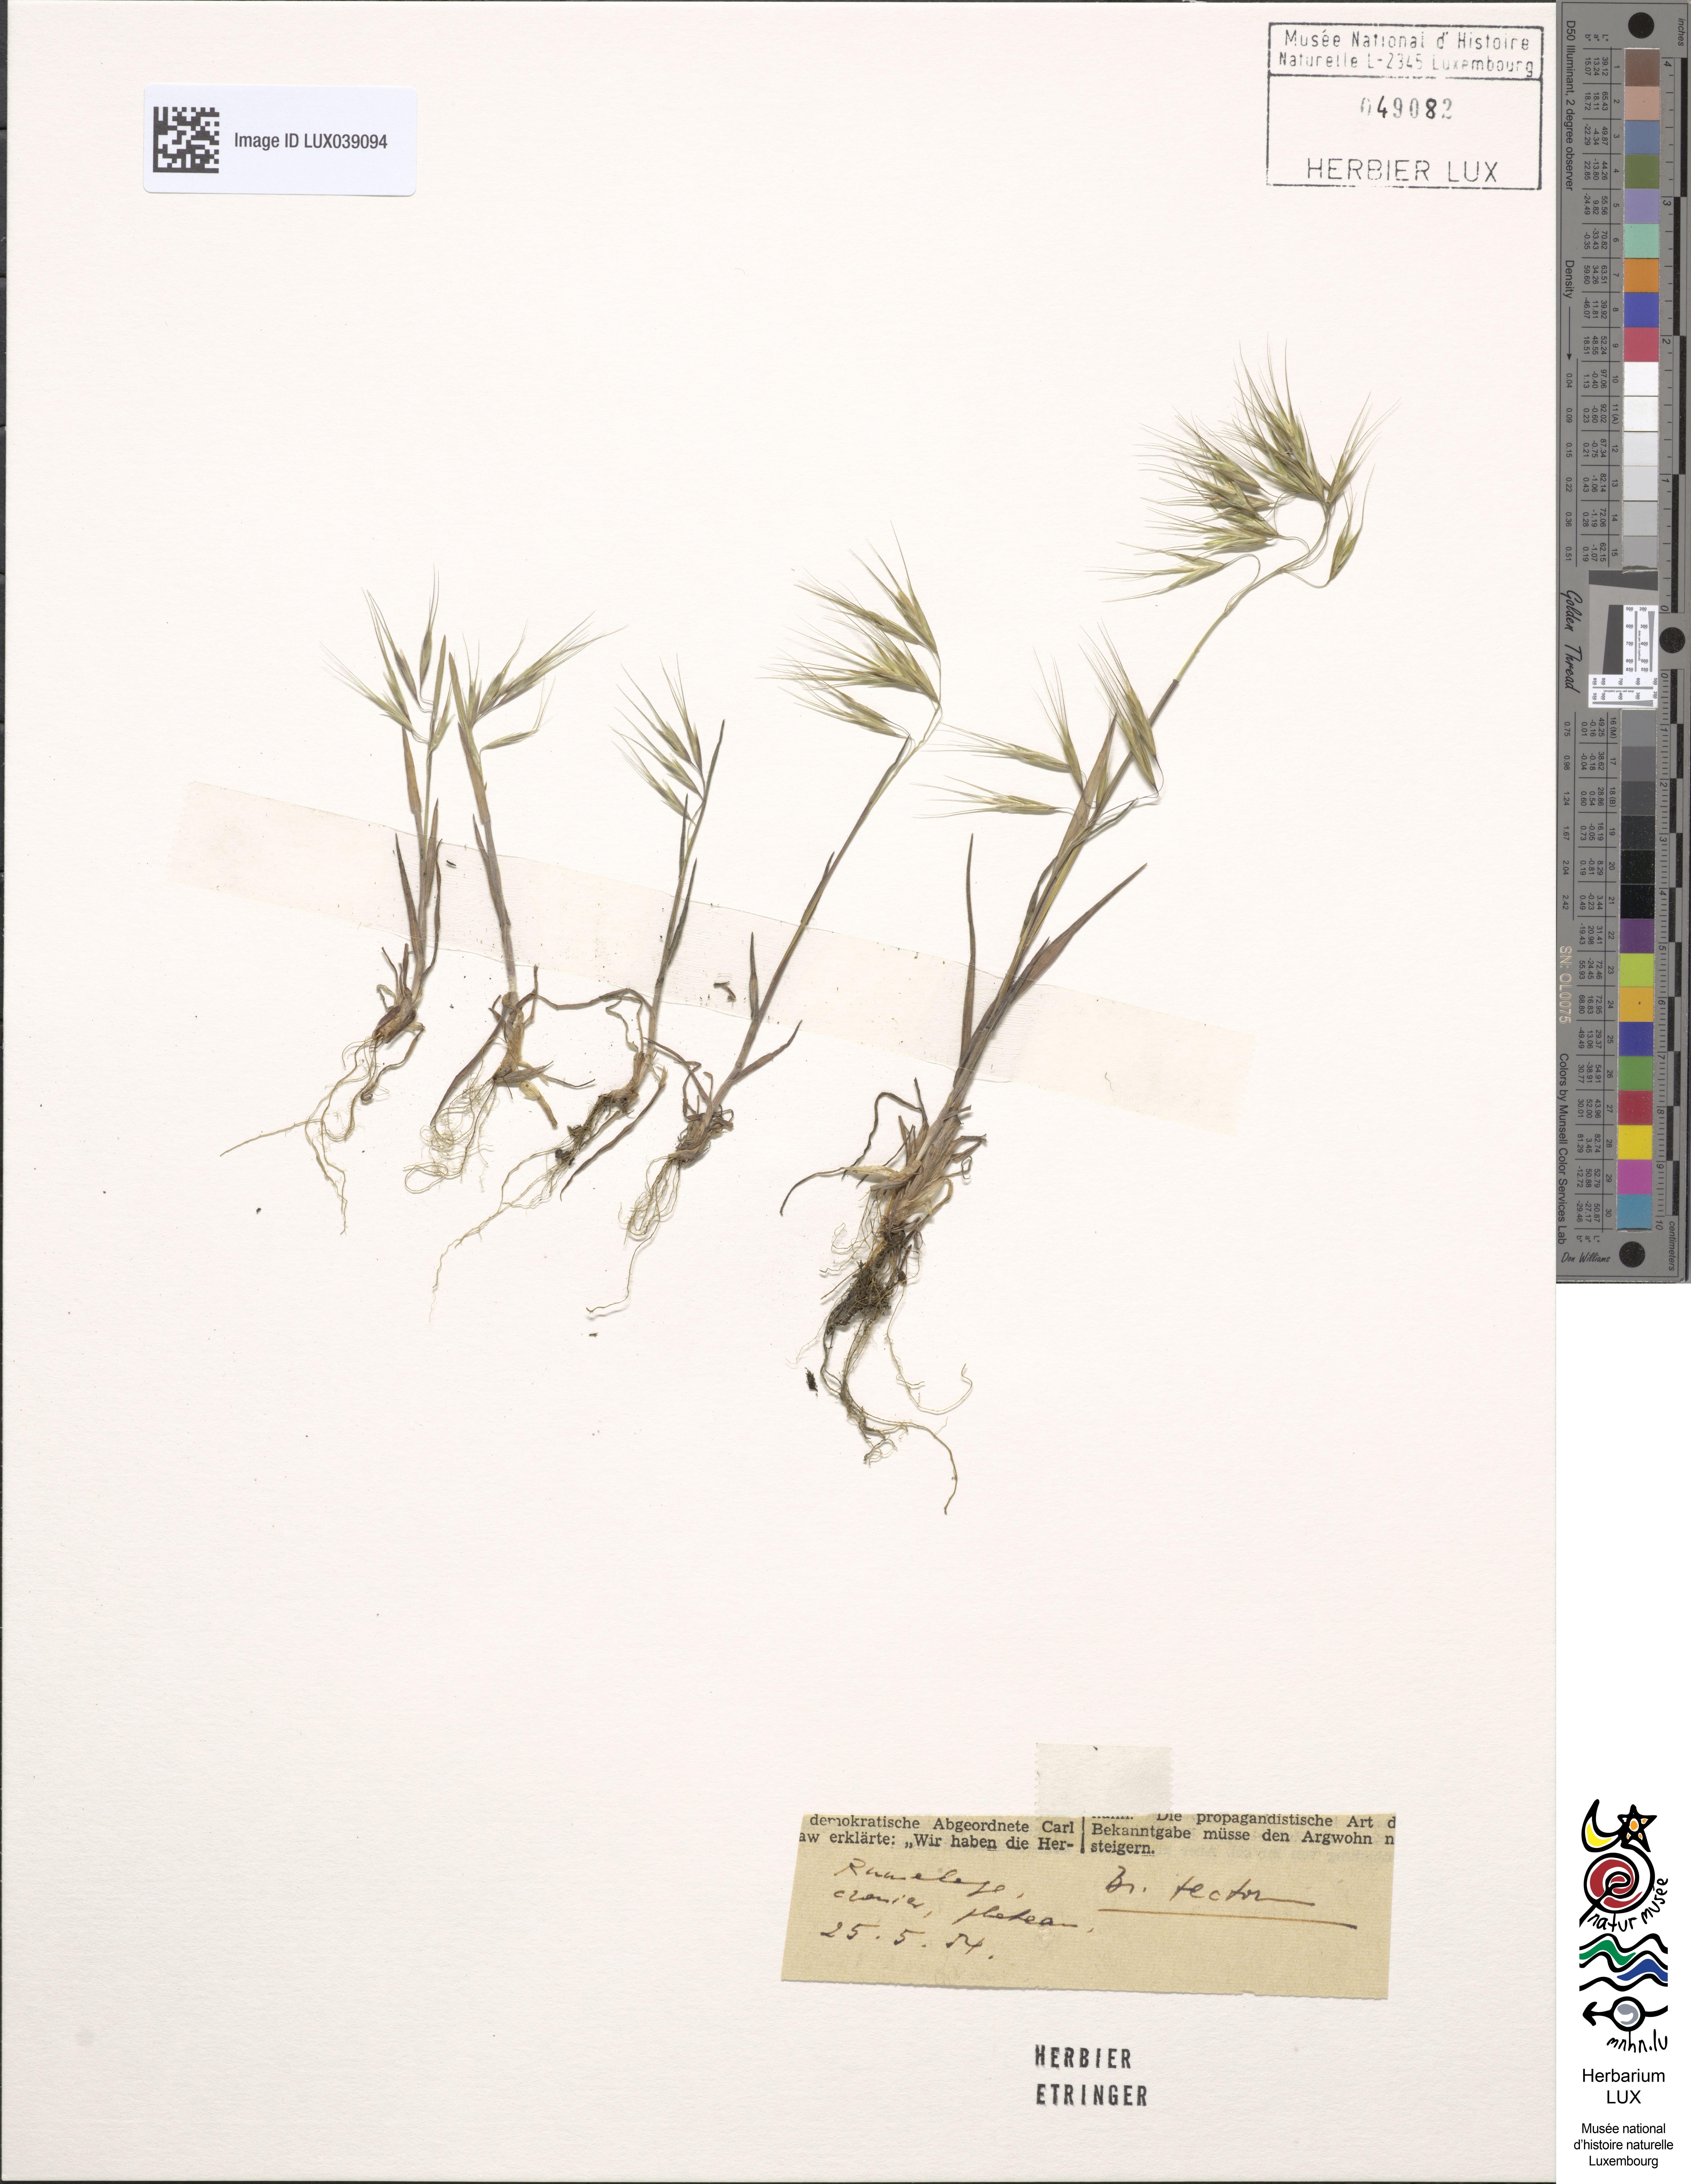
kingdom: Plantae
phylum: Tracheophyta
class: Liliopsida
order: Poales
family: Poaceae
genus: Bromus
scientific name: Bromus tectorum
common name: Cheatgrass
